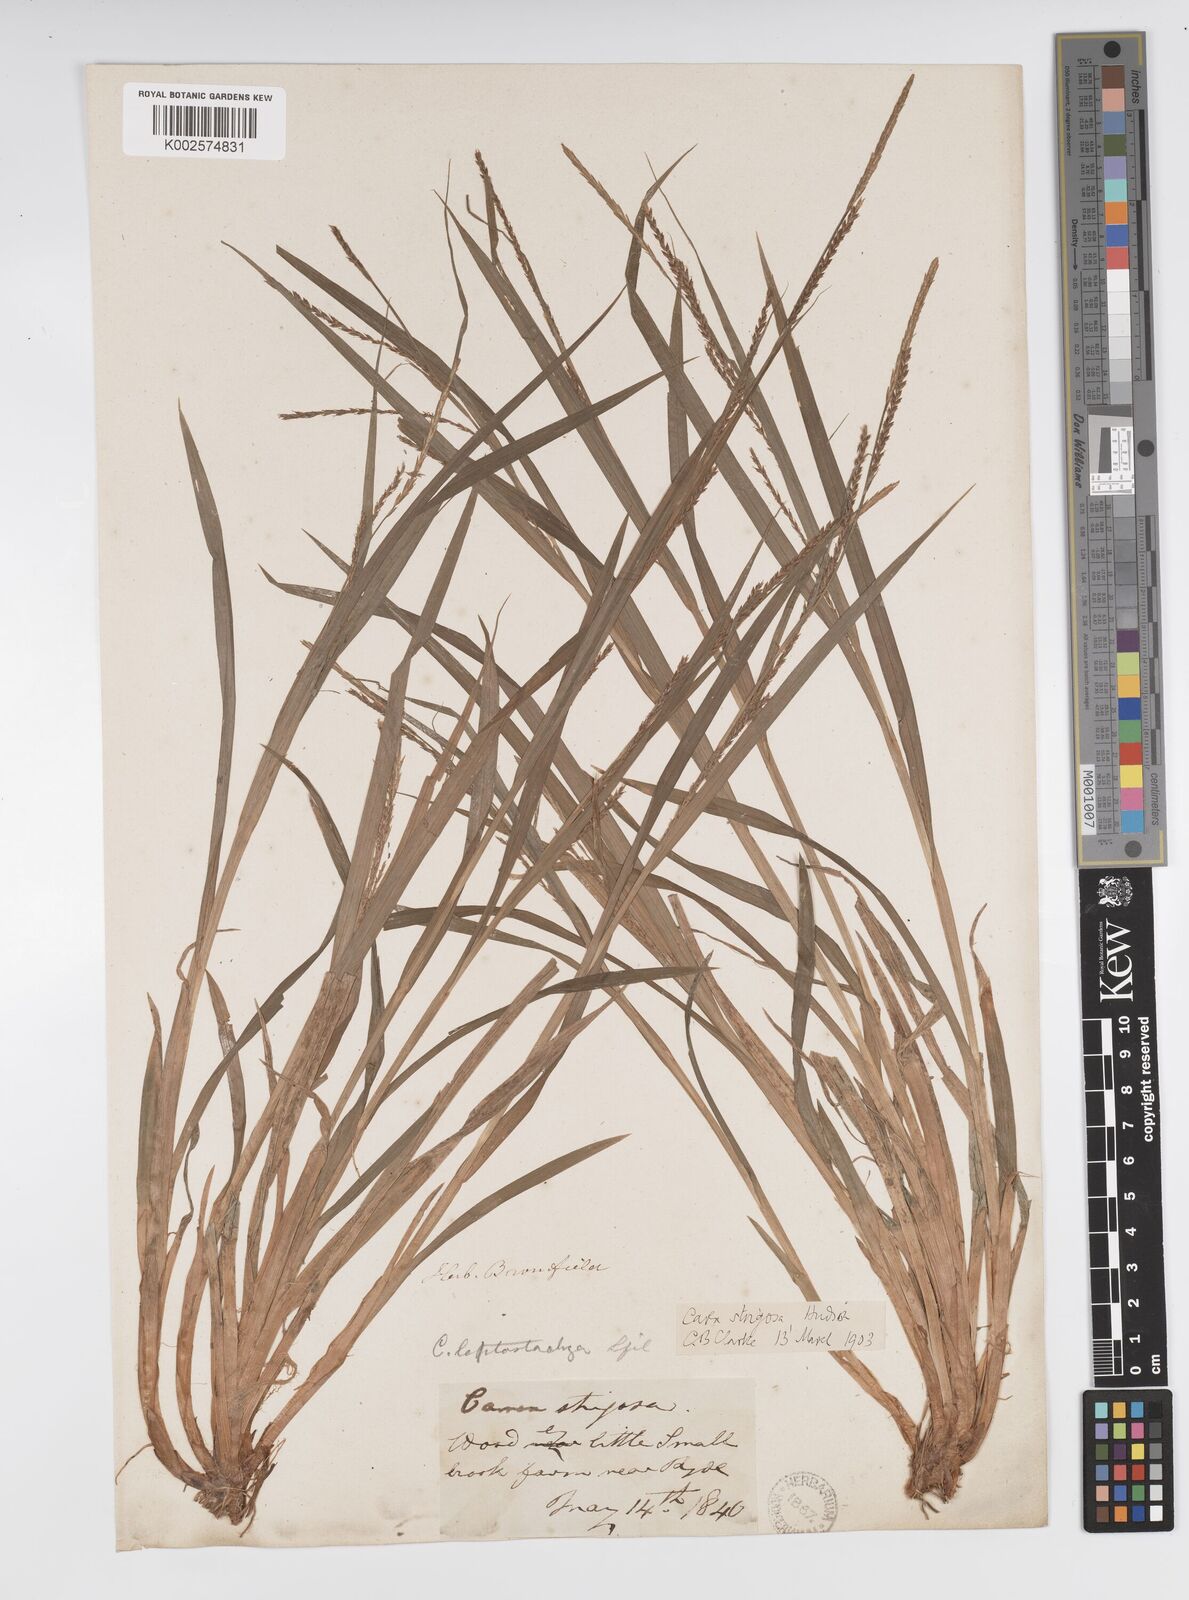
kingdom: Plantae
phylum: Tracheophyta
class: Liliopsida
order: Poales
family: Cyperaceae
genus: Carex
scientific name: Carex strigosa
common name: Thin-spiked wood-sedge
